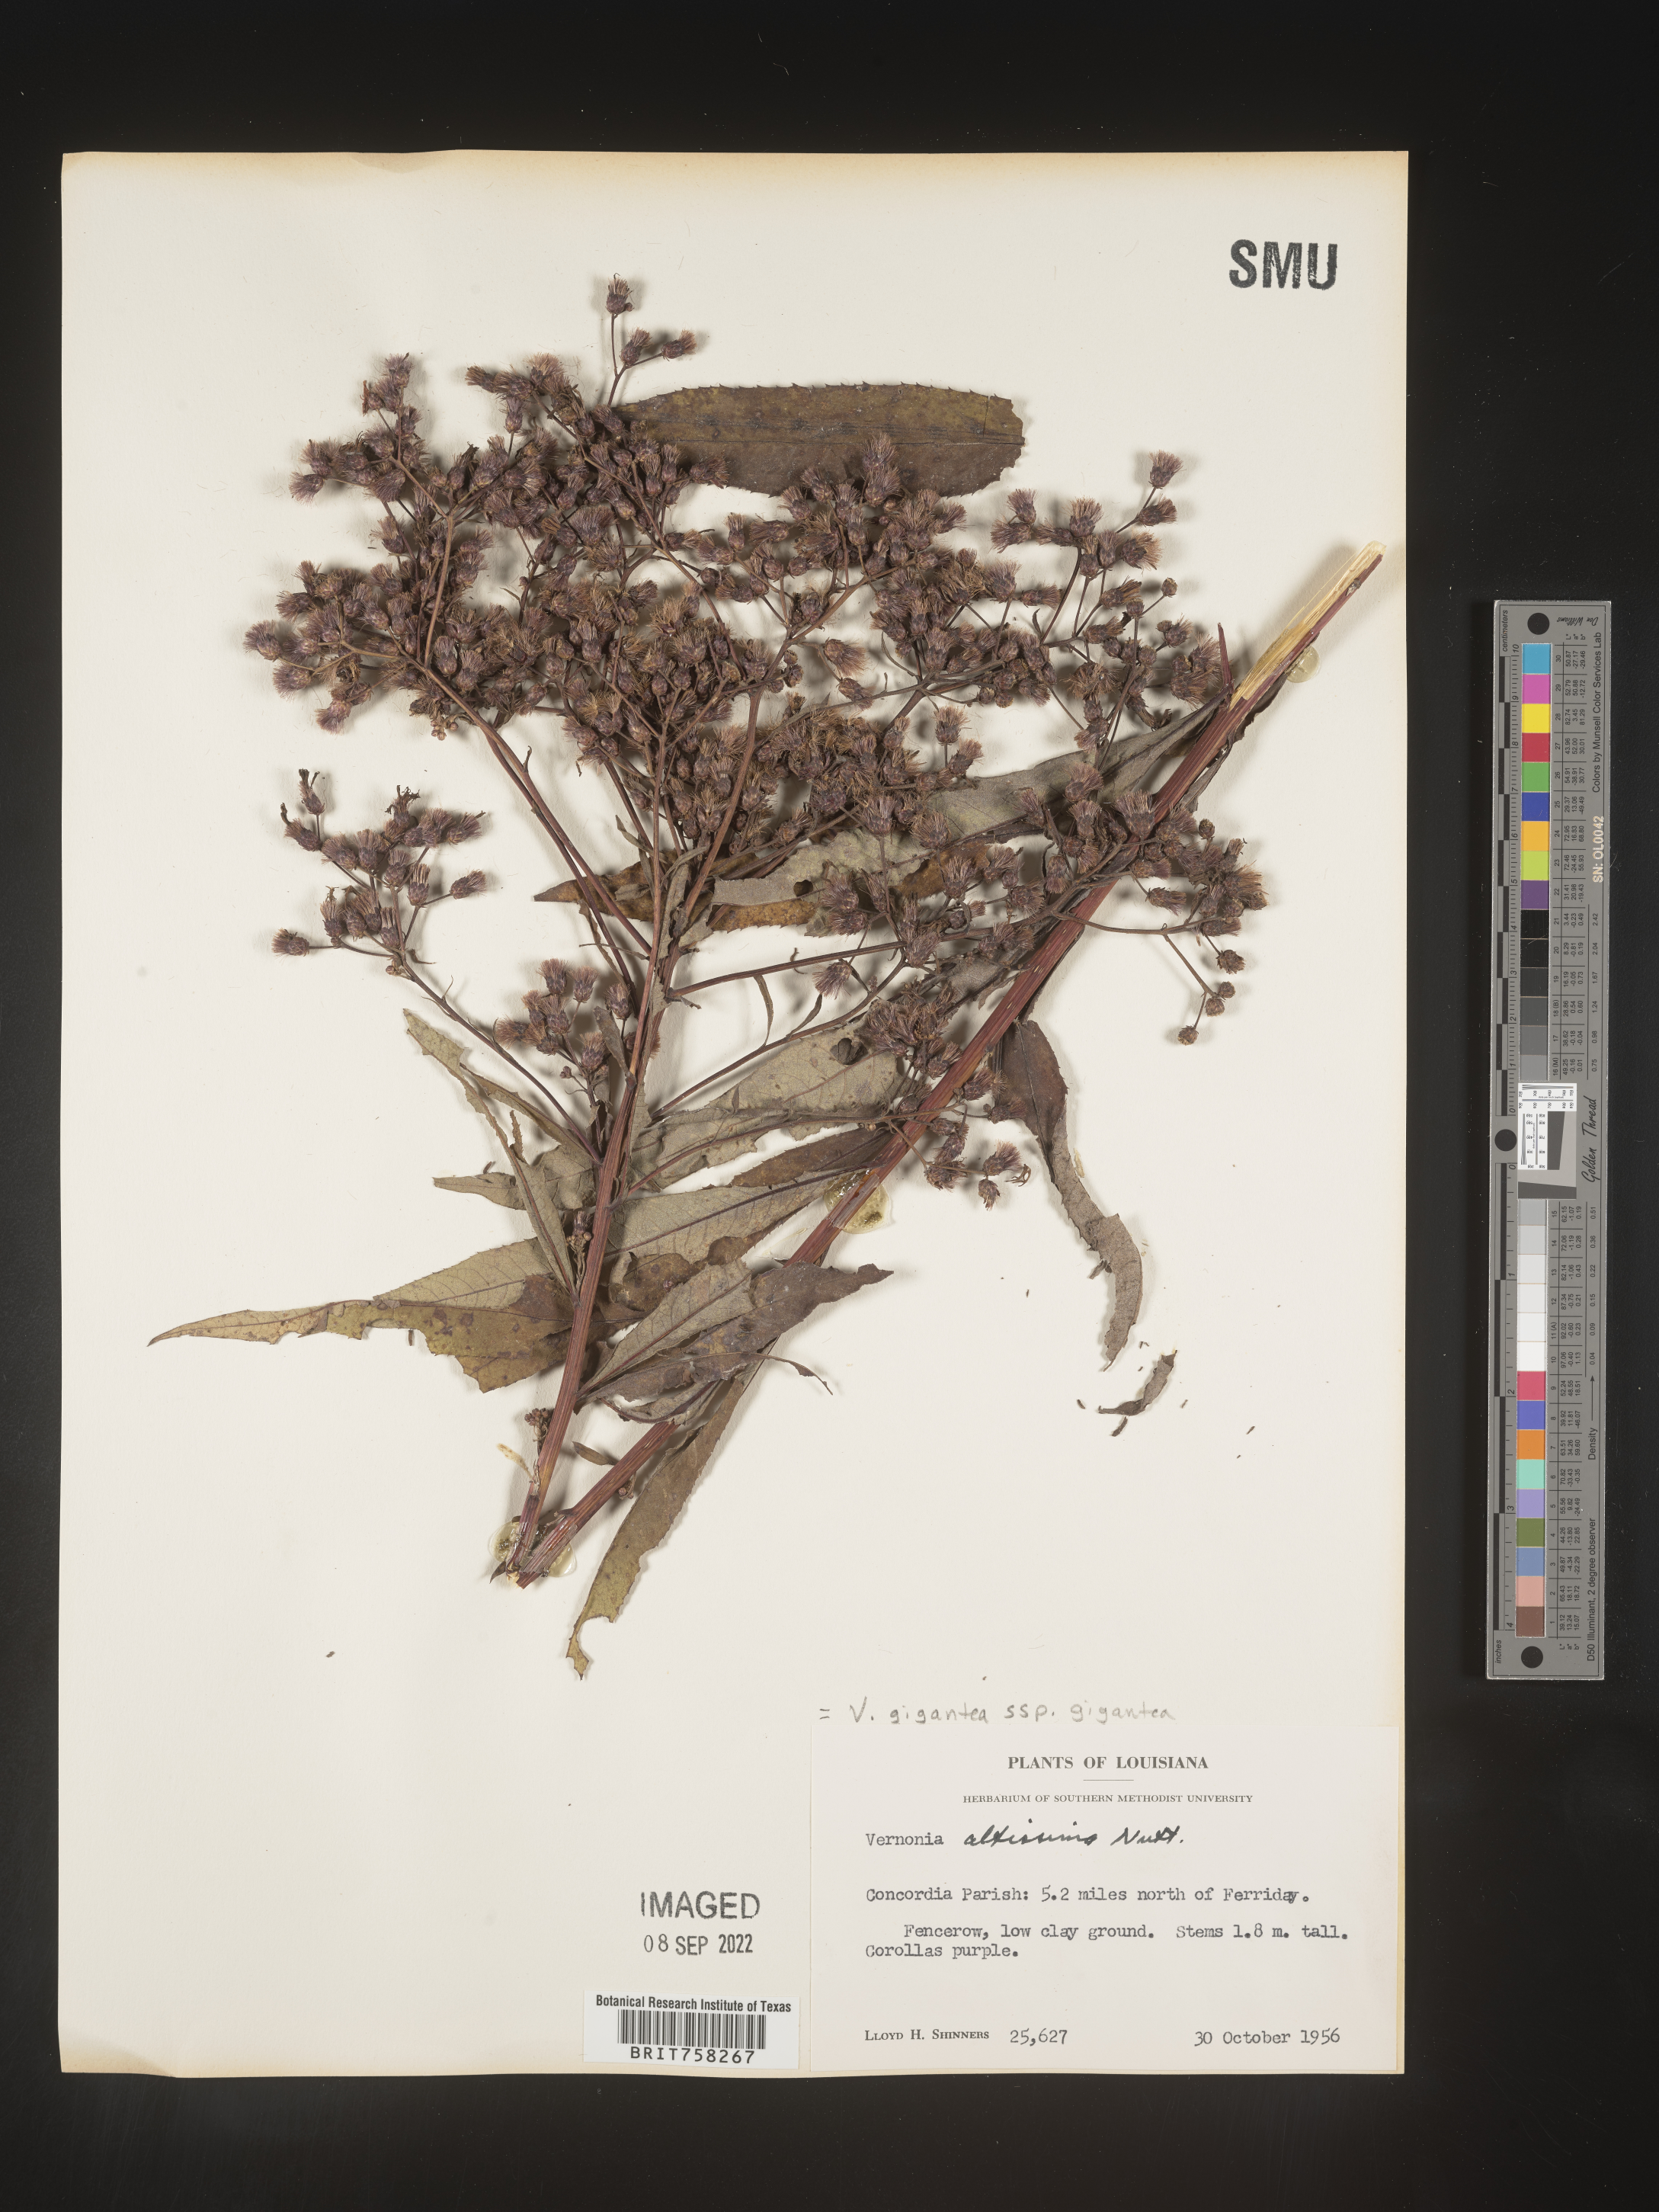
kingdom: Plantae
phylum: Tracheophyta
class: Magnoliopsida
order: Asterales
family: Asteraceae
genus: Vernonia
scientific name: Vernonia gigantea
